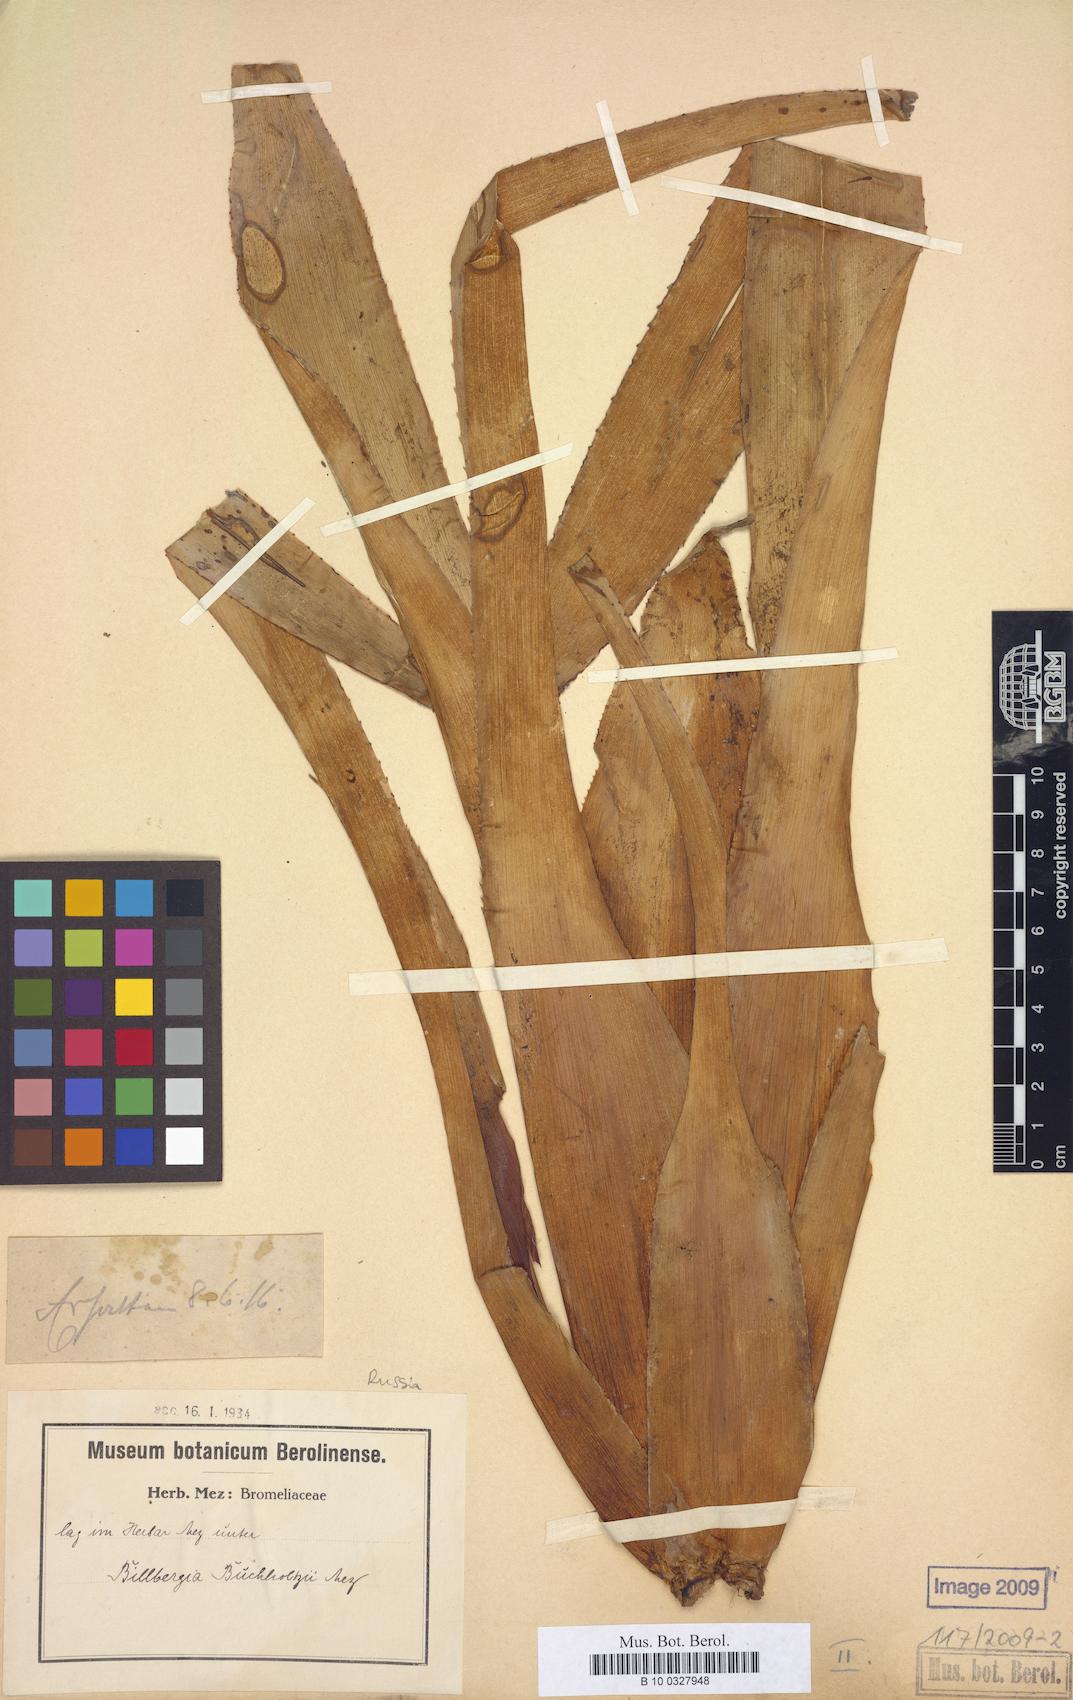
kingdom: Plantae
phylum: Tracheophyta
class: Liliopsida
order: Poales
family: Bromeliaceae
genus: Billbergia
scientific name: Billbergia buchholtzii
